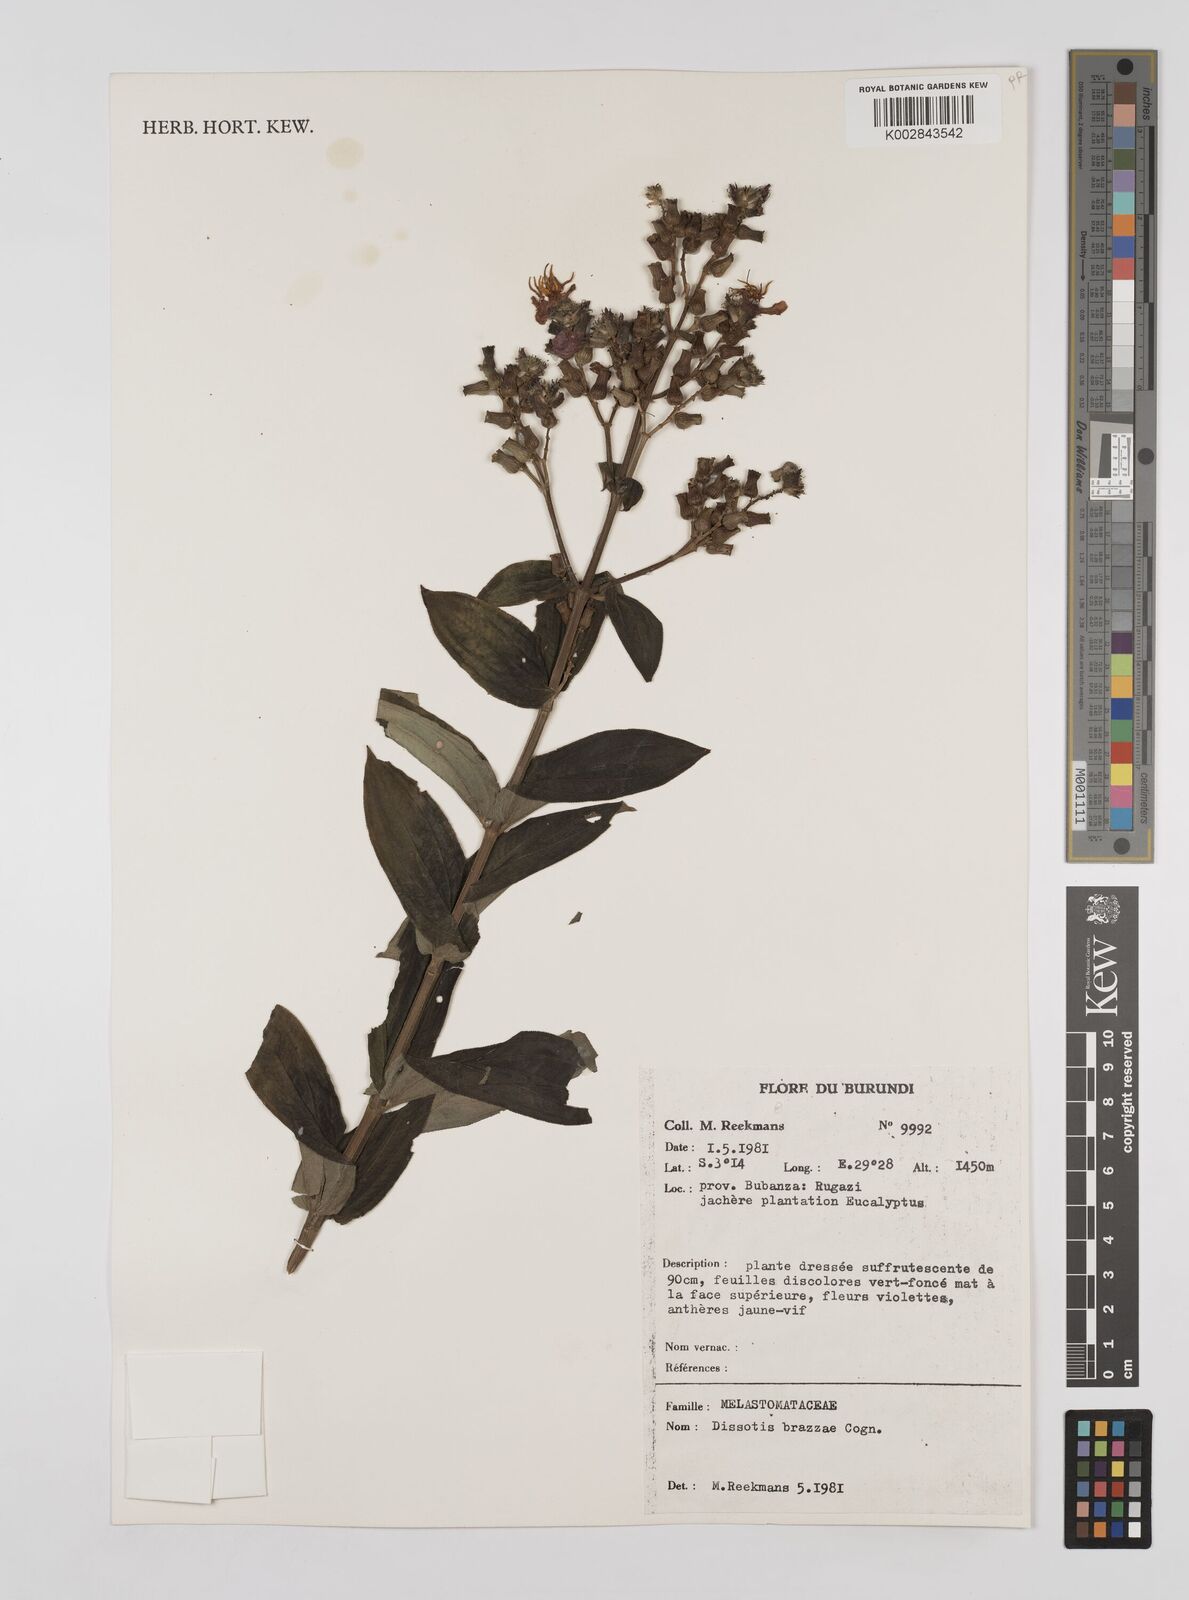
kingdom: Plantae
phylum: Tracheophyta
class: Magnoliopsida
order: Myrtales
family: Melastomataceae
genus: Dupineta
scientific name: Dupineta brazzae
